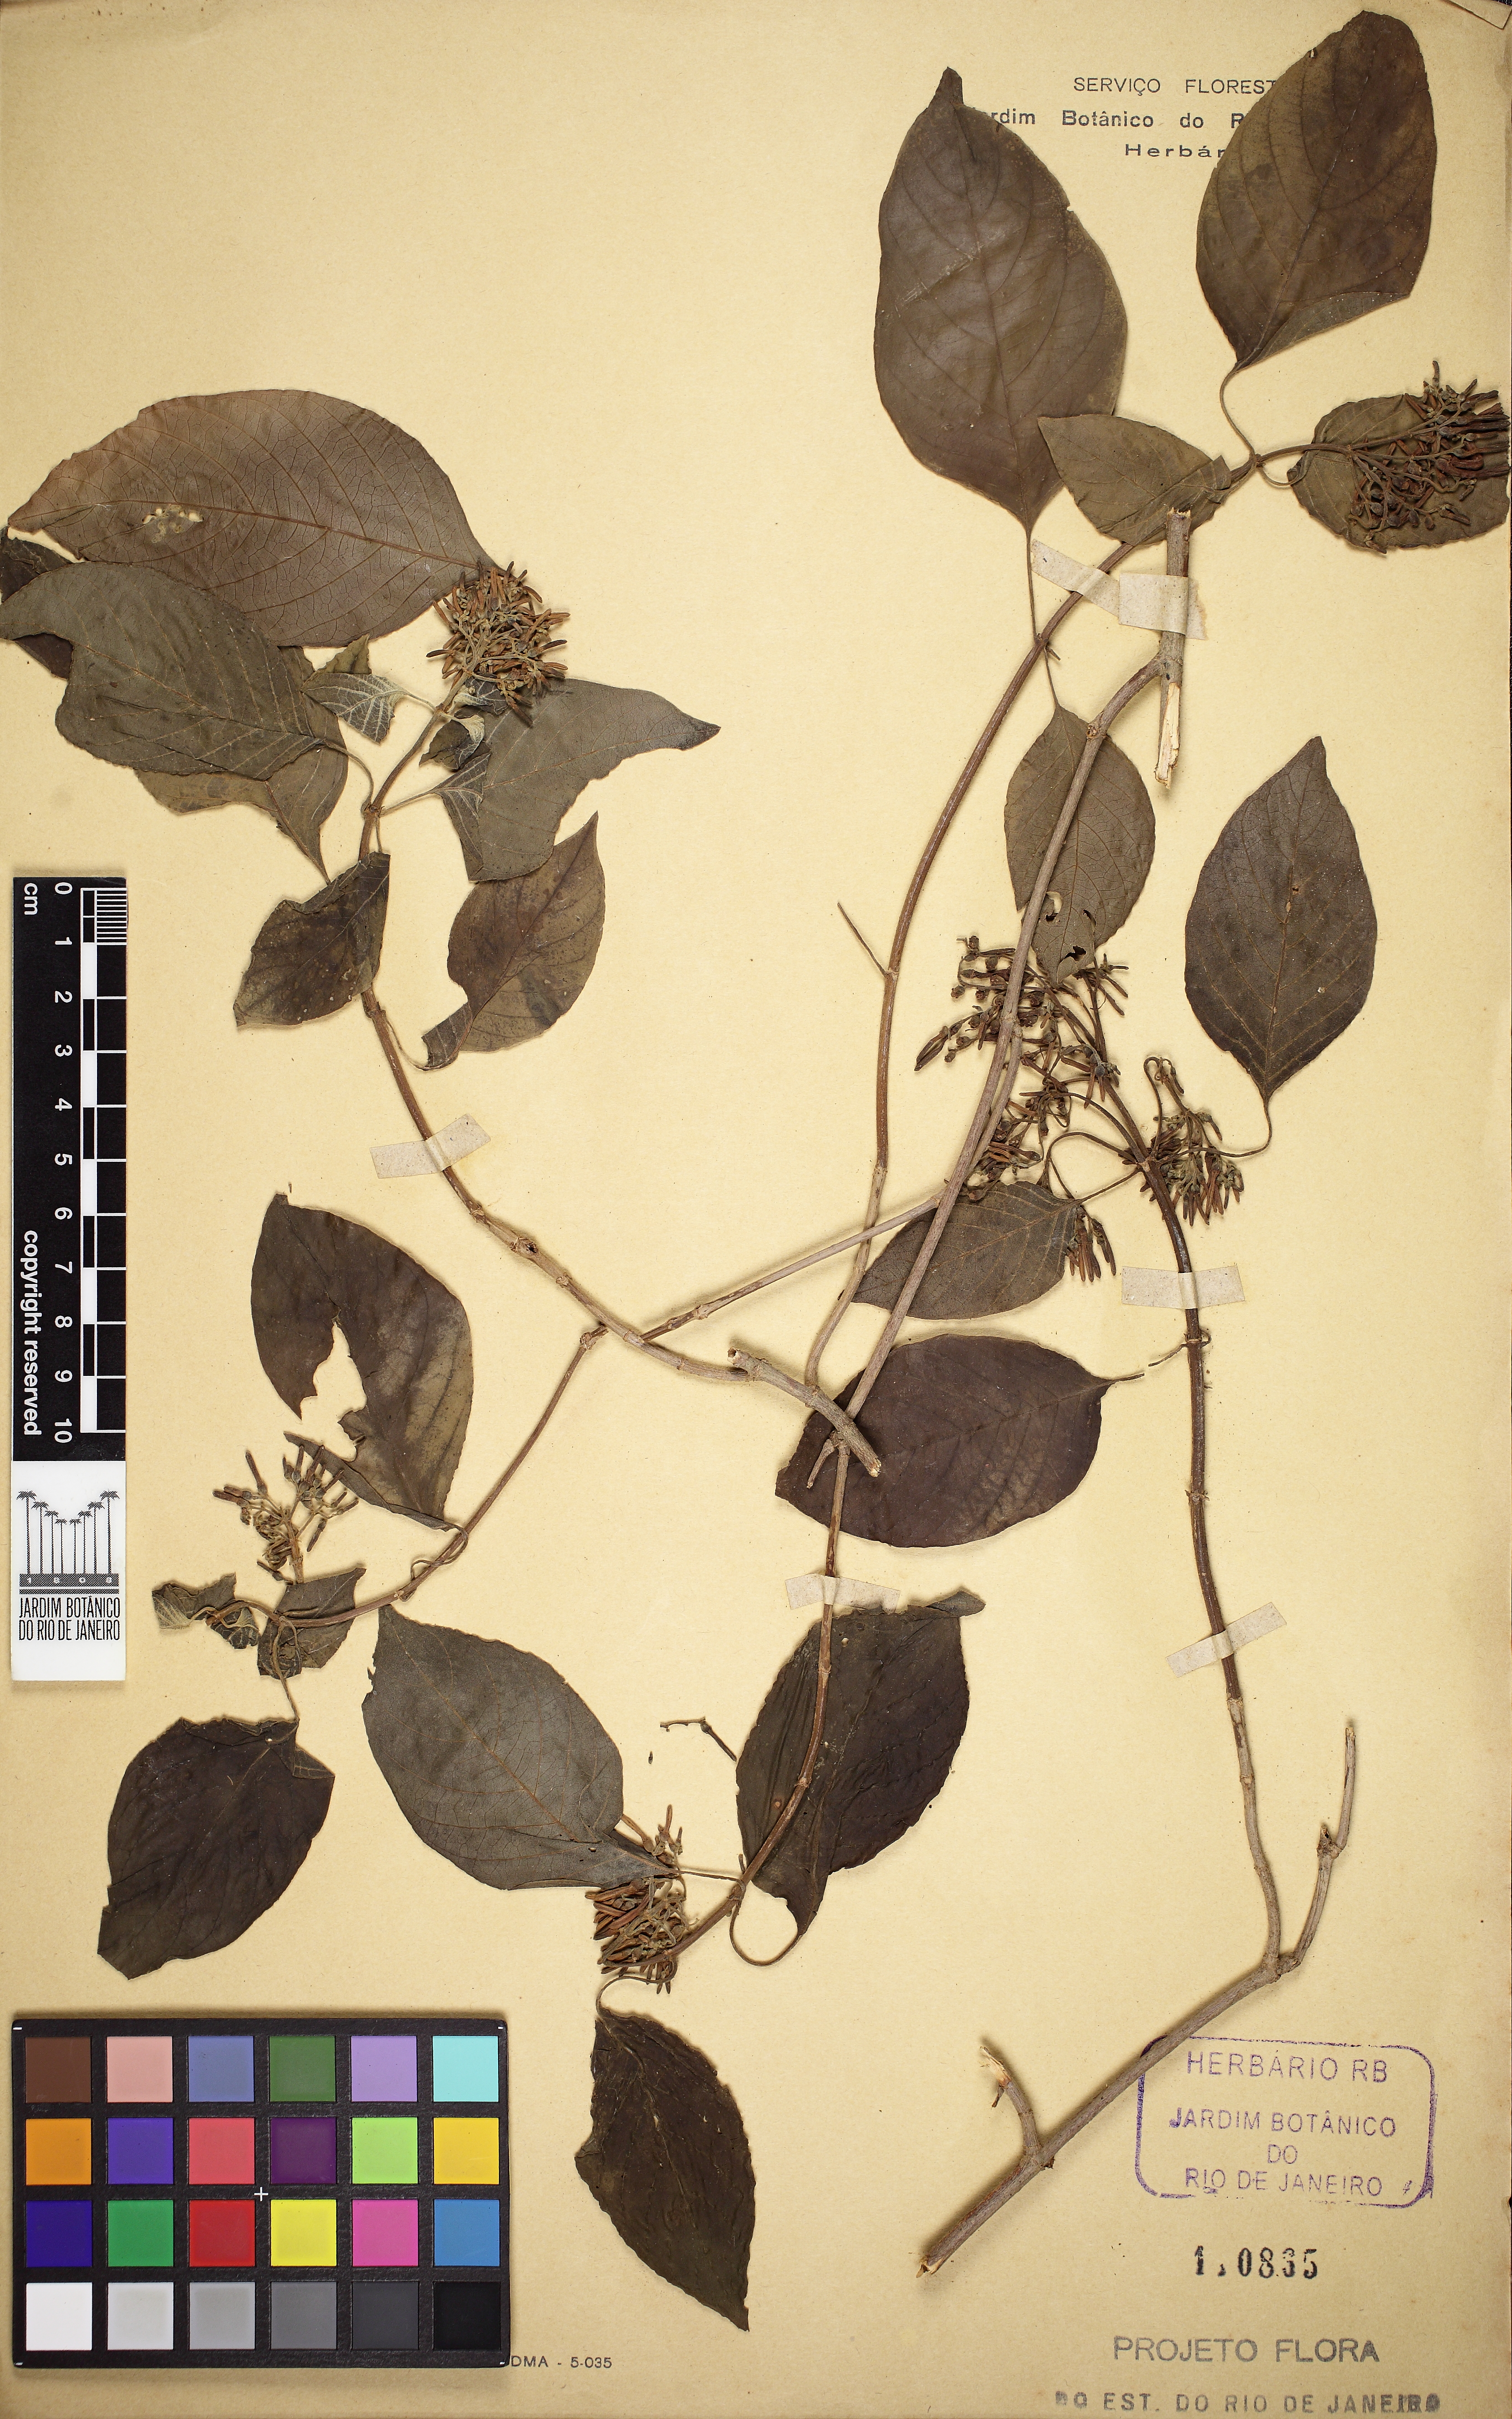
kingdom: Plantae
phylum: Tracheophyta
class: Magnoliopsida
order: Gentianales
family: Rubiaceae
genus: Hamelia
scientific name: Hamelia
